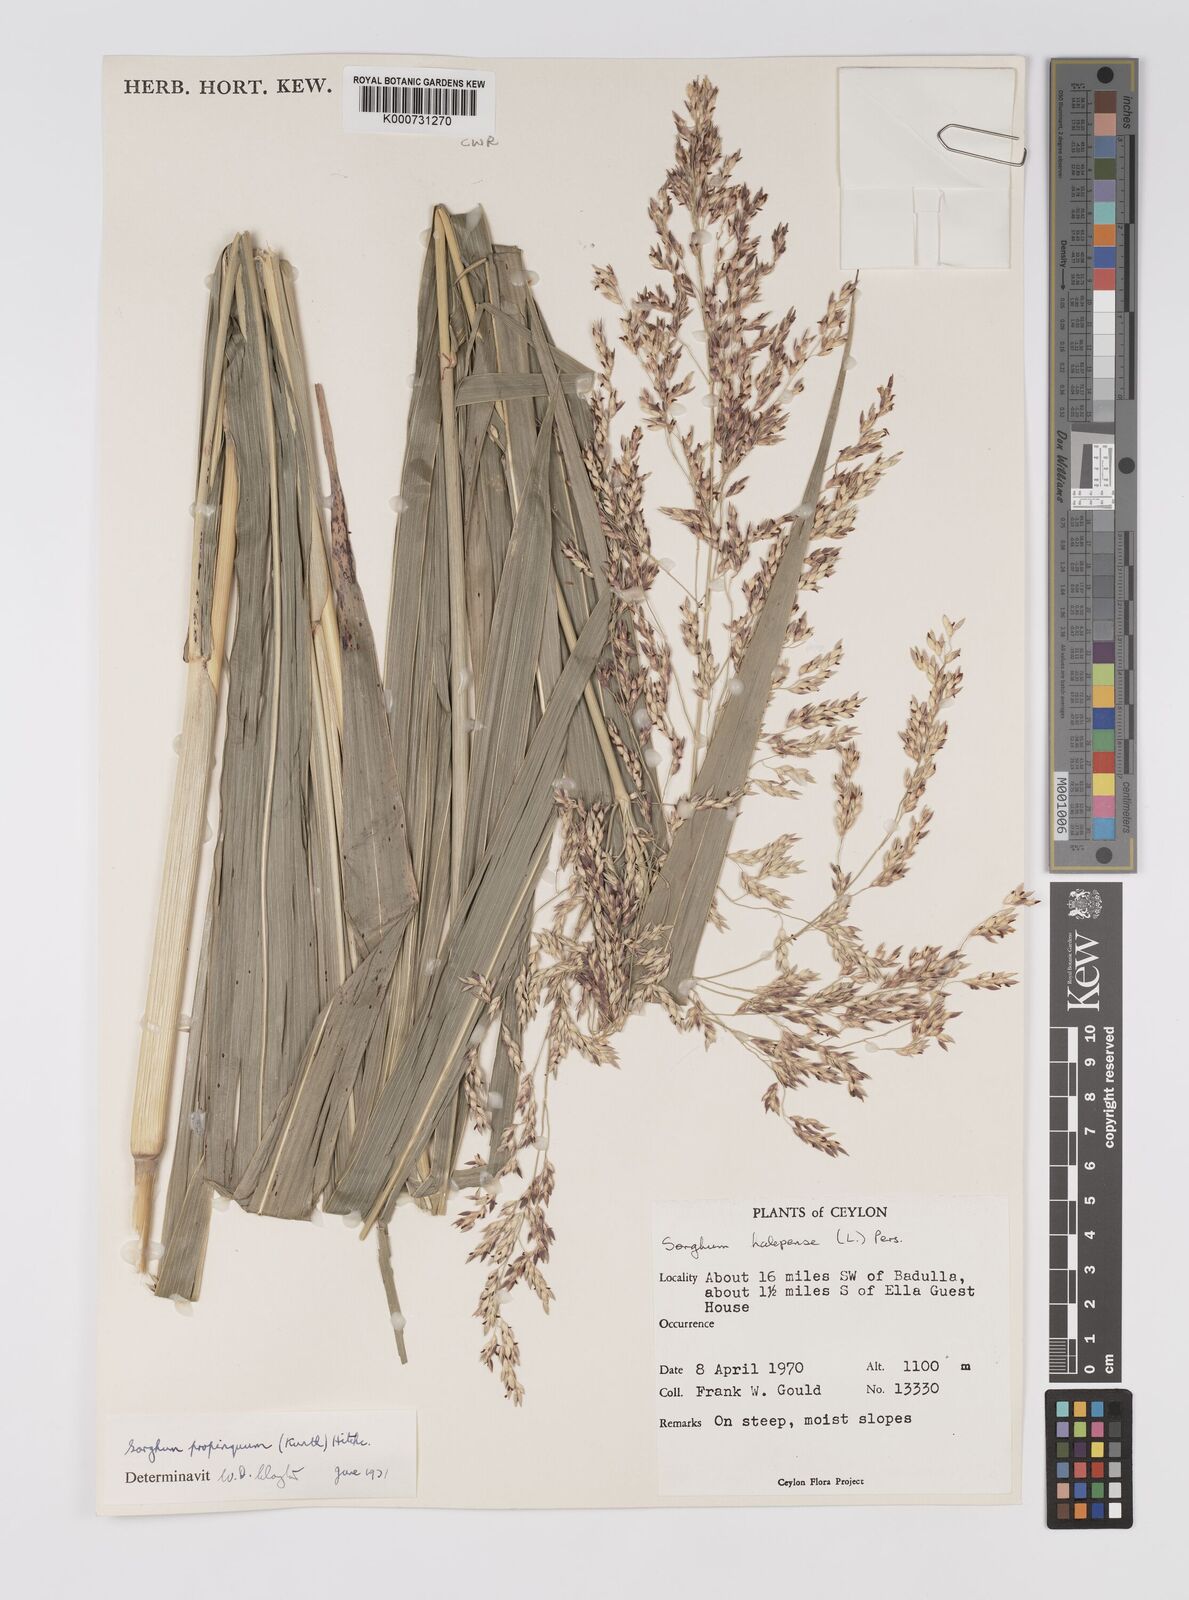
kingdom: Plantae
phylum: Tracheophyta
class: Liliopsida
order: Poales
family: Poaceae
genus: Sorghum
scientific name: Sorghum propinquum
